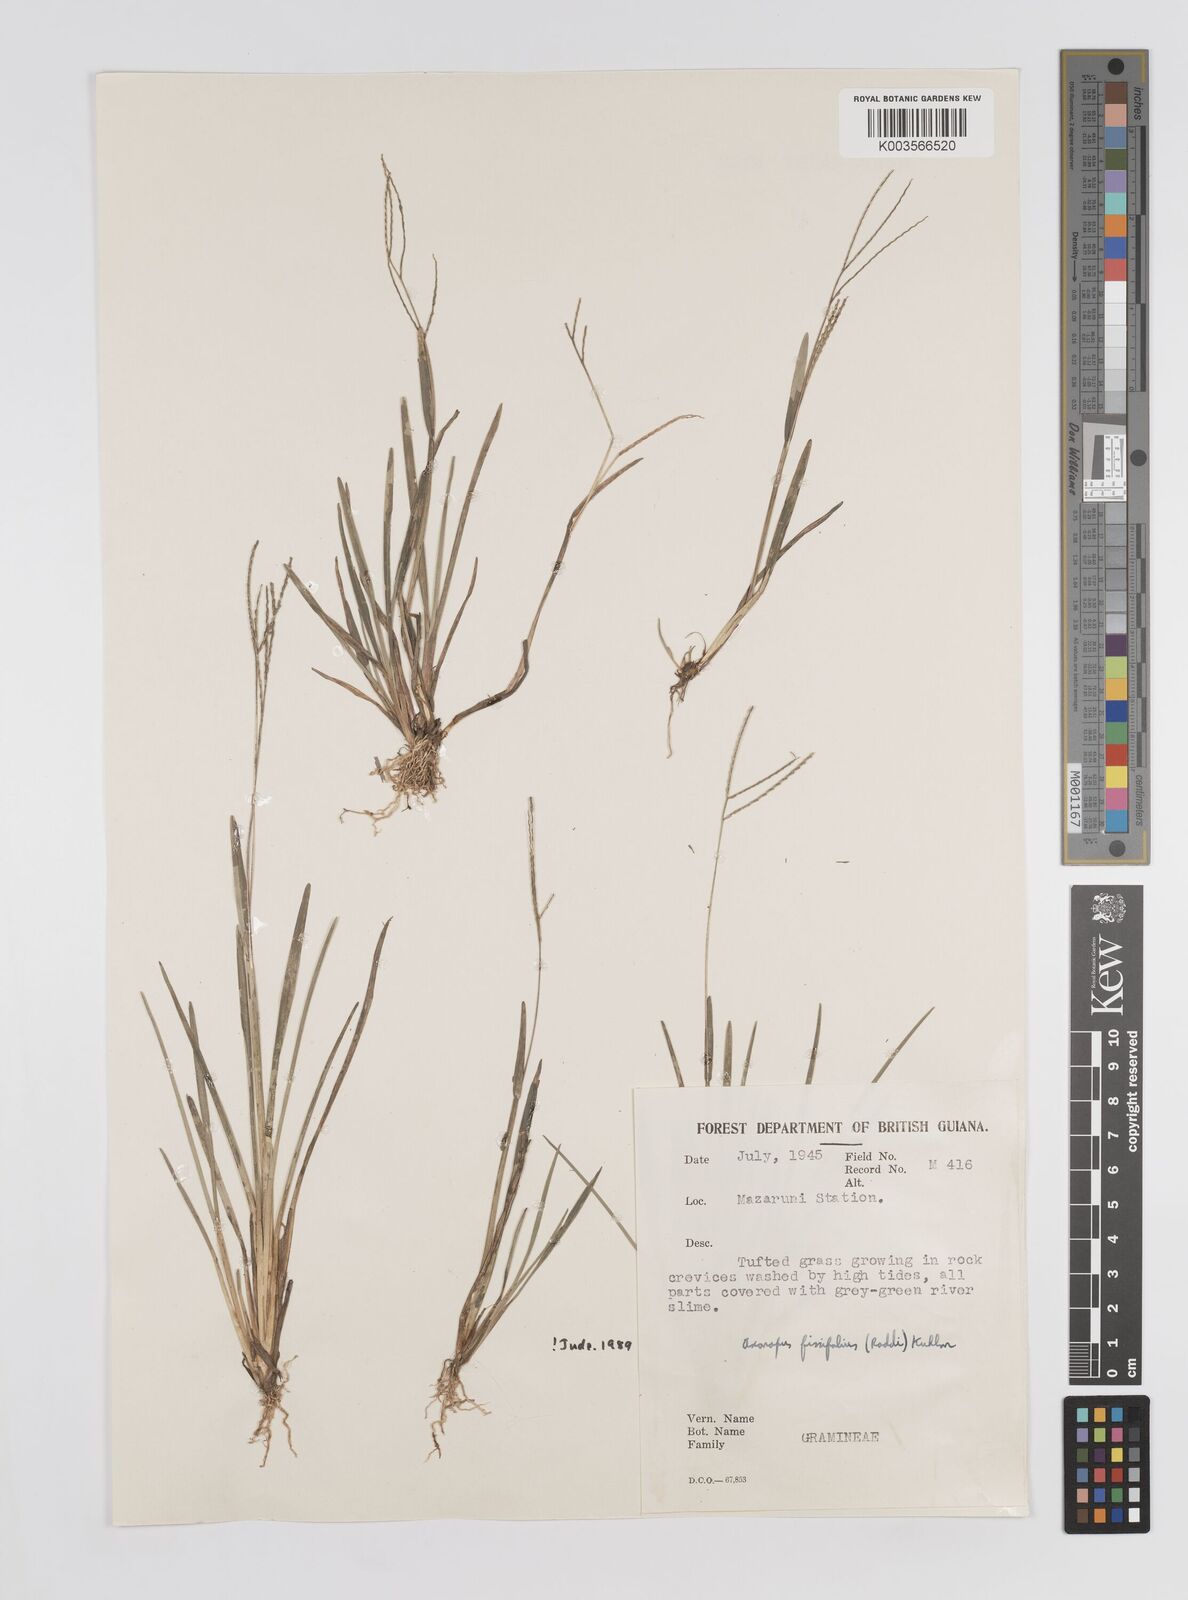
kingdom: Plantae
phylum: Tracheophyta
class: Liliopsida
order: Poales
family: Poaceae
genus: Axonopus
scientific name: Axonopus fissifolius
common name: Common carpetgrass
